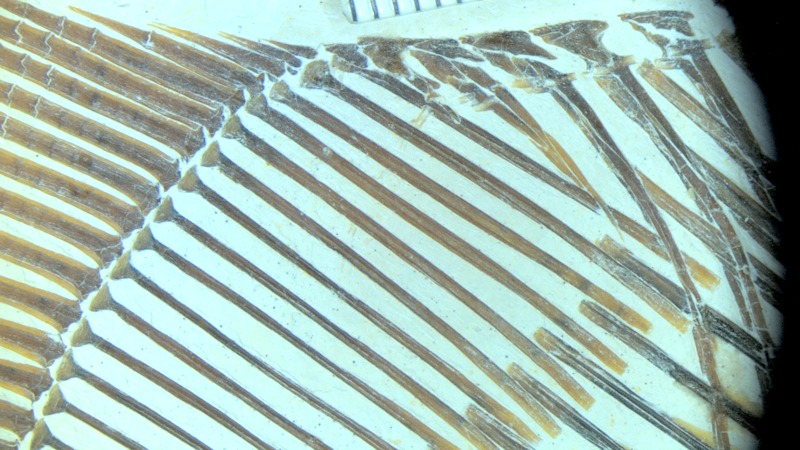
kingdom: Animalia
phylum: Chordata
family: Pycnodontidae
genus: Turbomesodon
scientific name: Turbomesodon relegans
